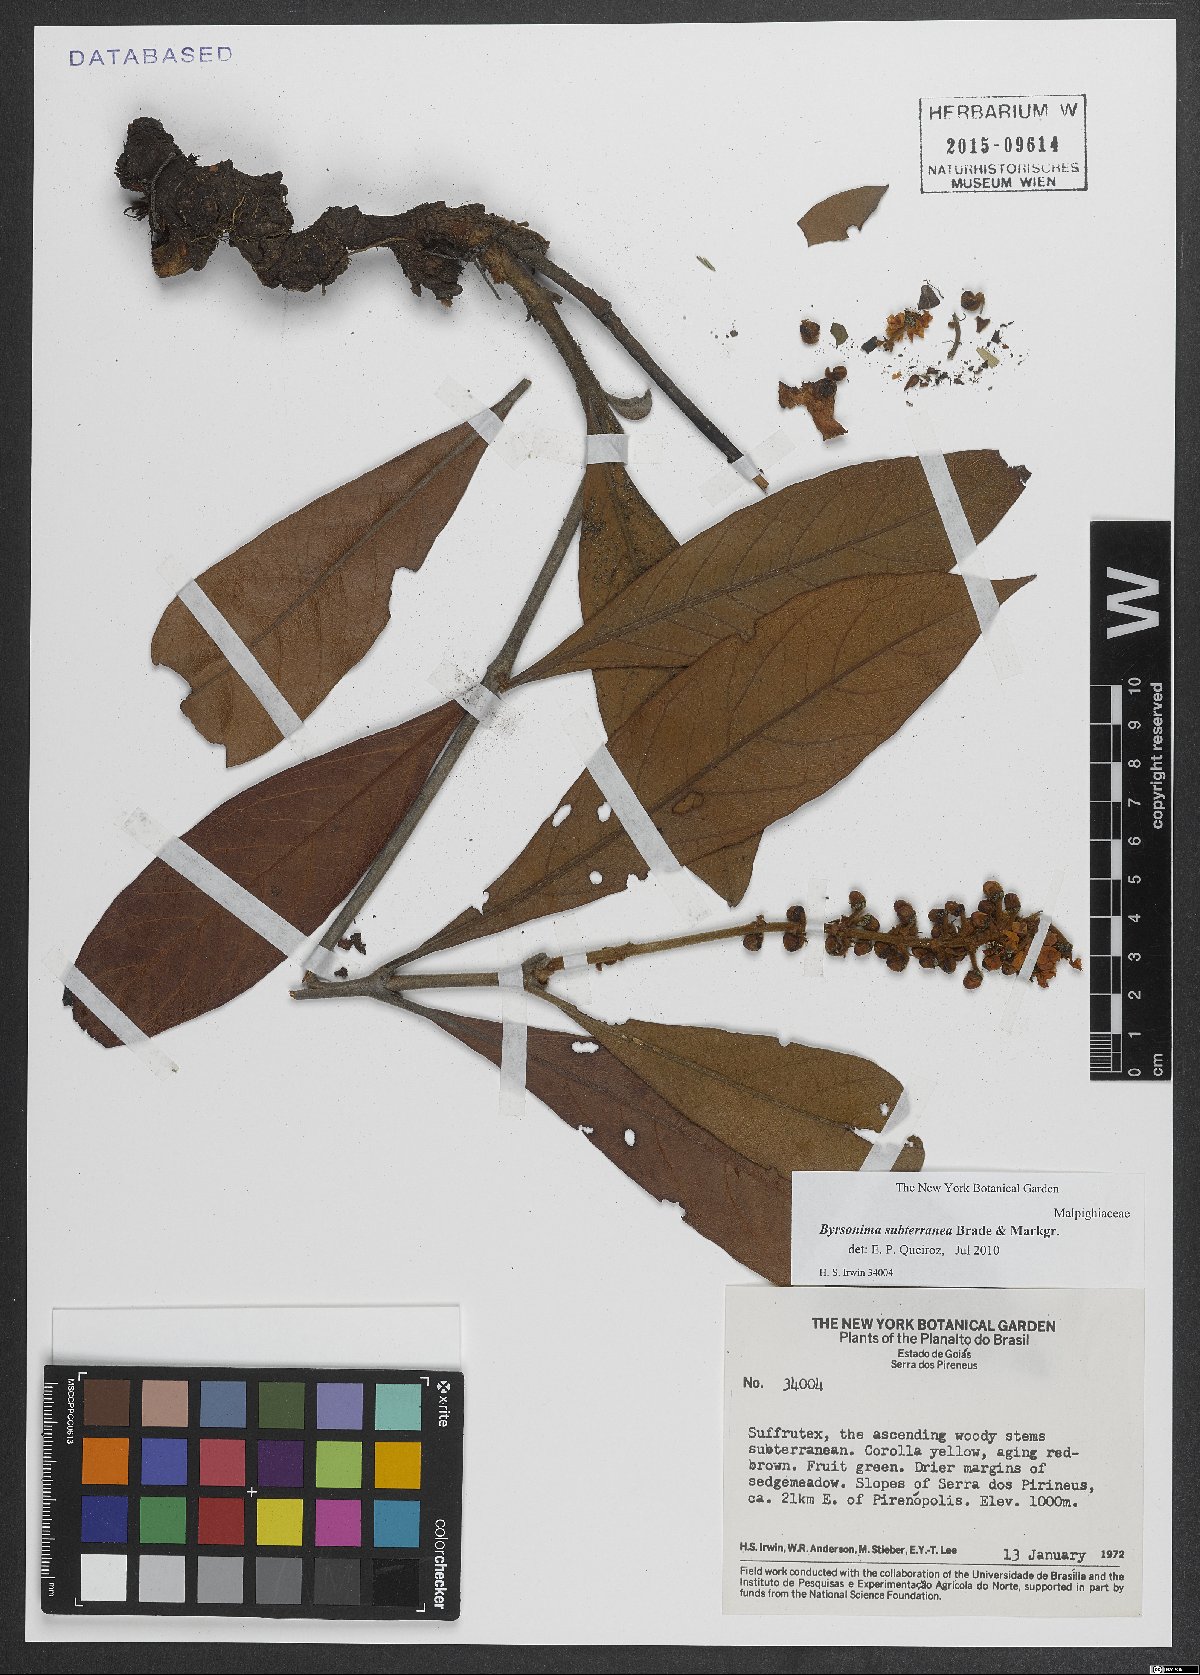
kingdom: Plantae
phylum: Tracheophyta
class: Magnoliopsida
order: Malpighiales
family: Malpighiaceae
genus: Byrsonima
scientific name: Byrsonima subterranea
